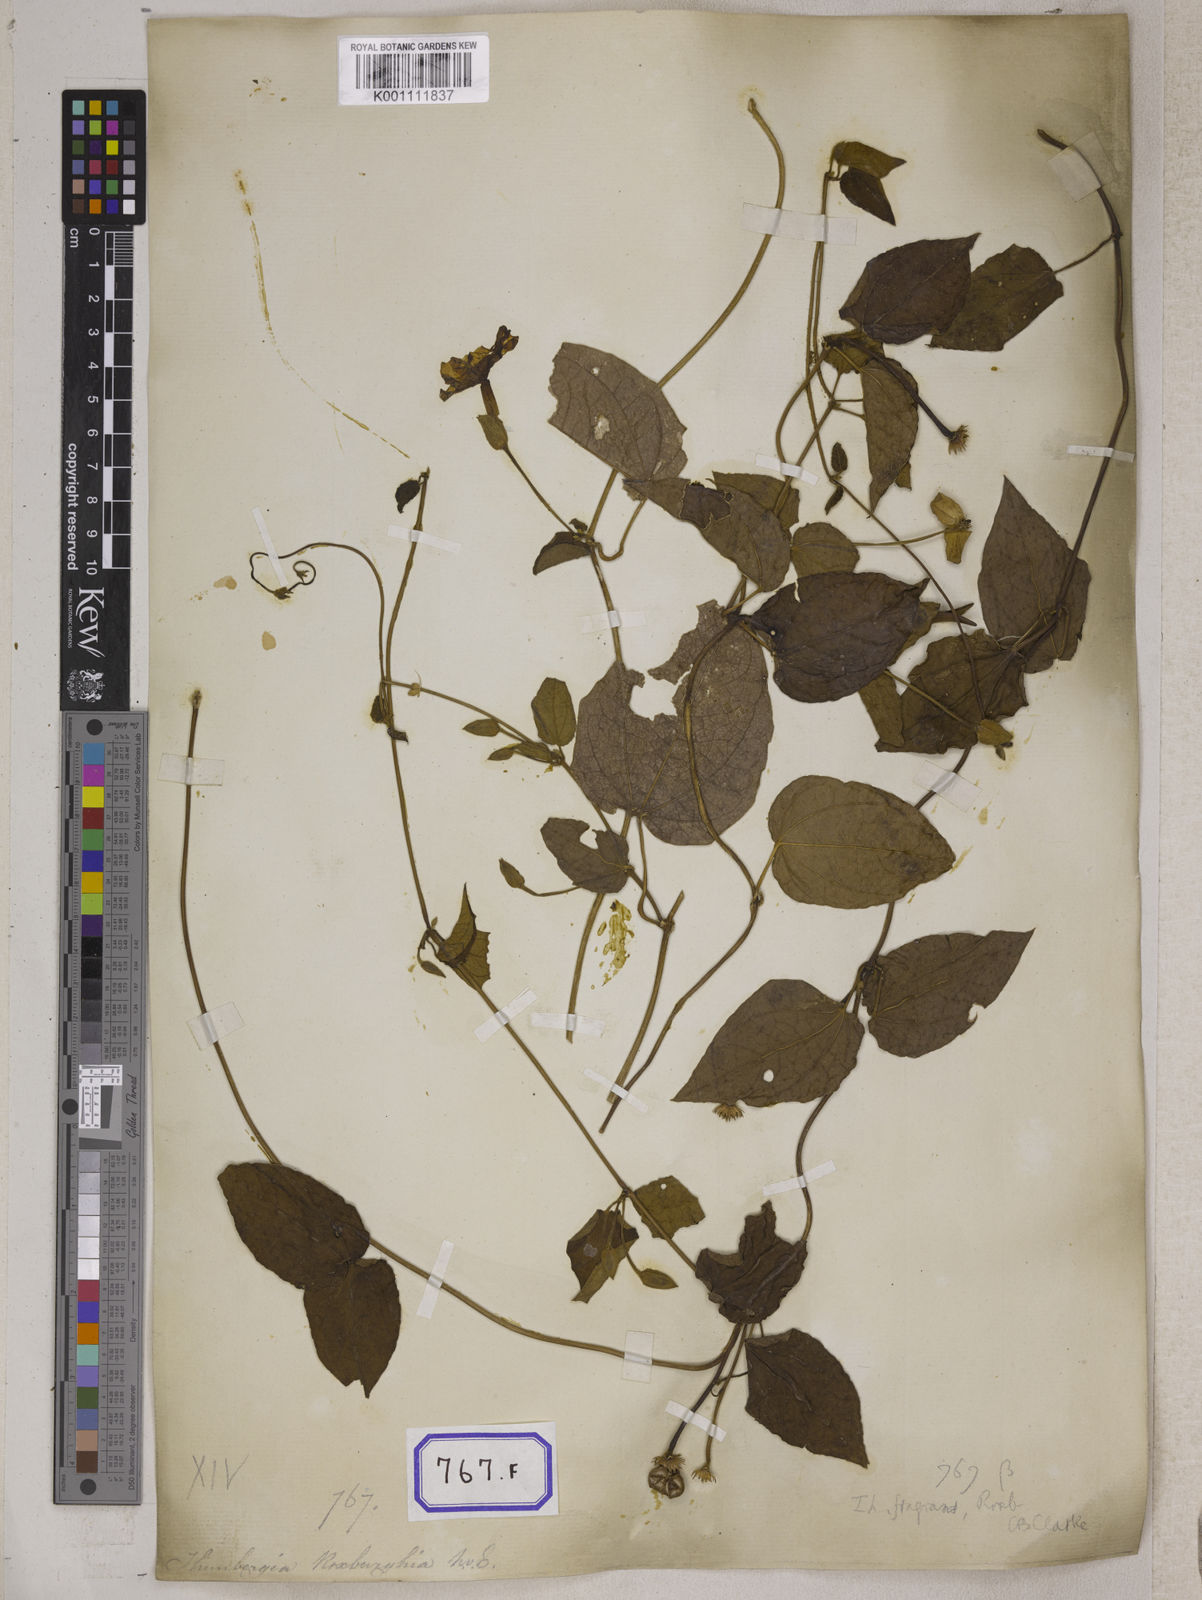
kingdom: Plantae
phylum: Tracheophyta
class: Magnoliopsida
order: Lamiales
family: Acanthaceae
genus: Thunbergia
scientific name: Thunbergia fragrans
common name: Whitelady
